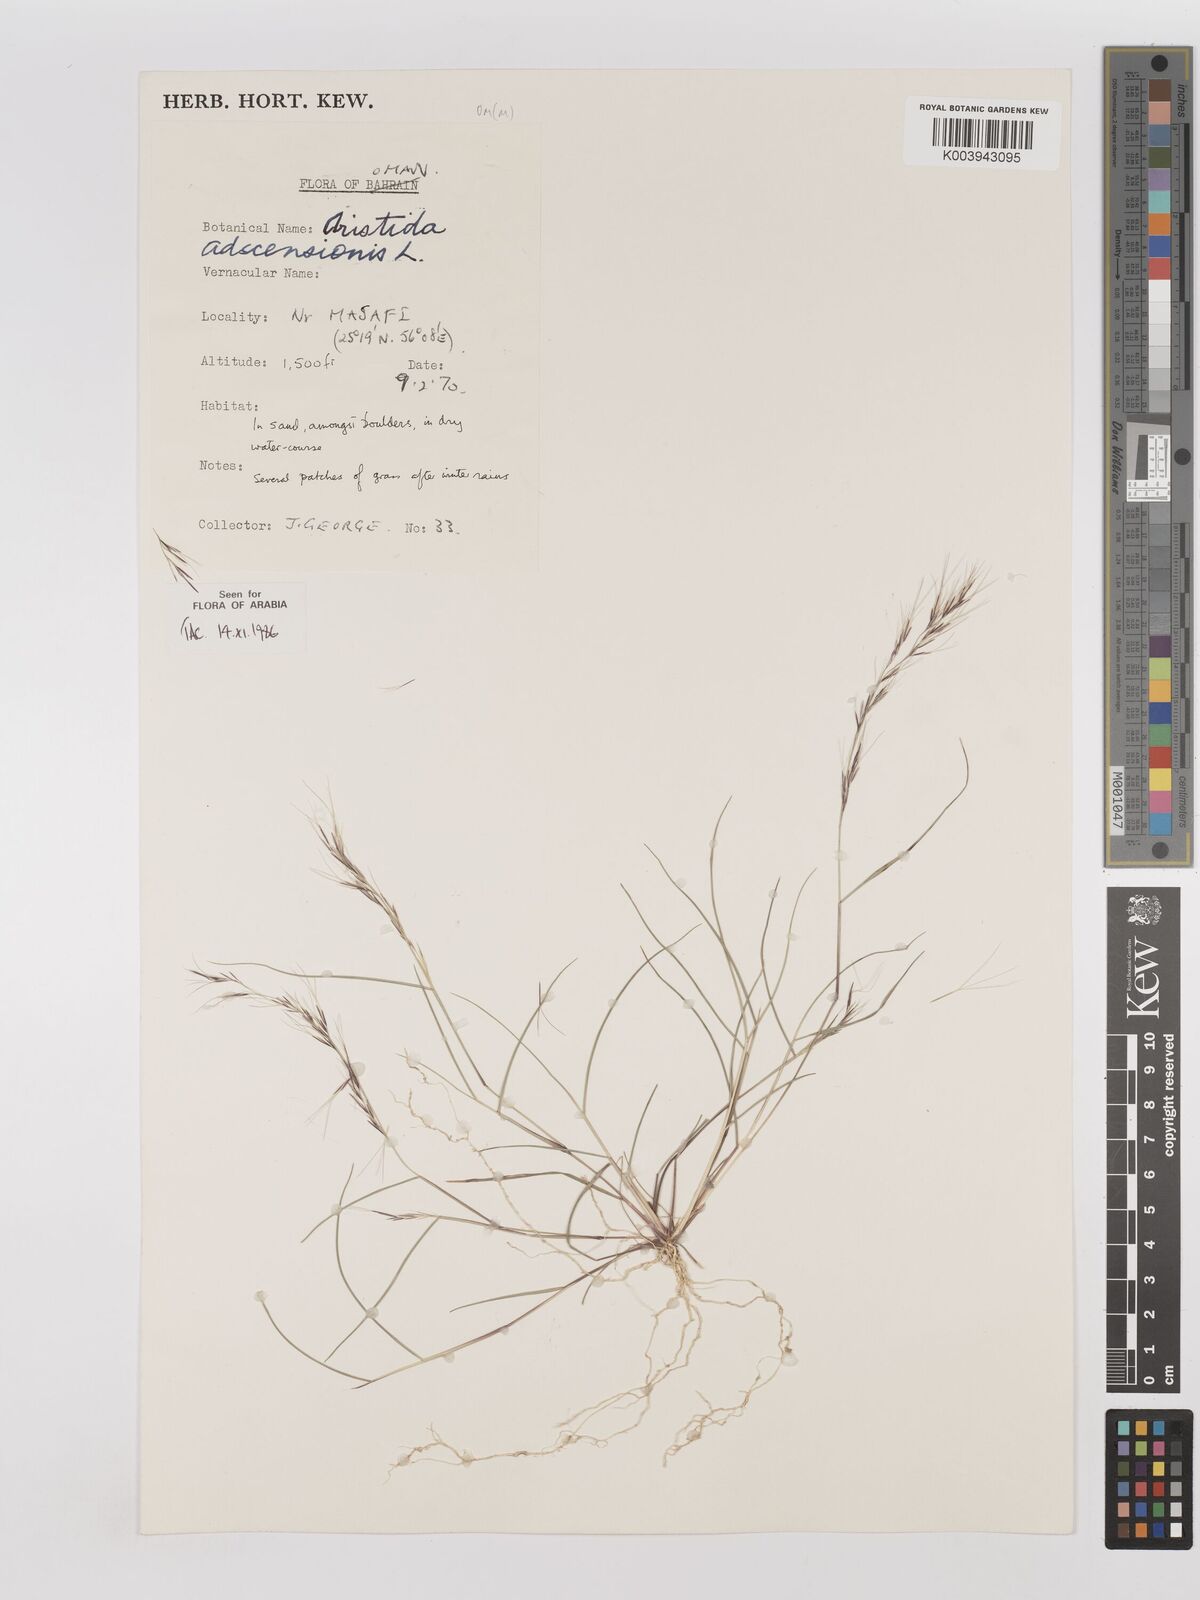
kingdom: Plantae
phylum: Tracheophyta
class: Liliopsida
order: Poales
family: Poaceae
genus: Aristida
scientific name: Aristida adscensionis
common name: Sixweeks threeawn
